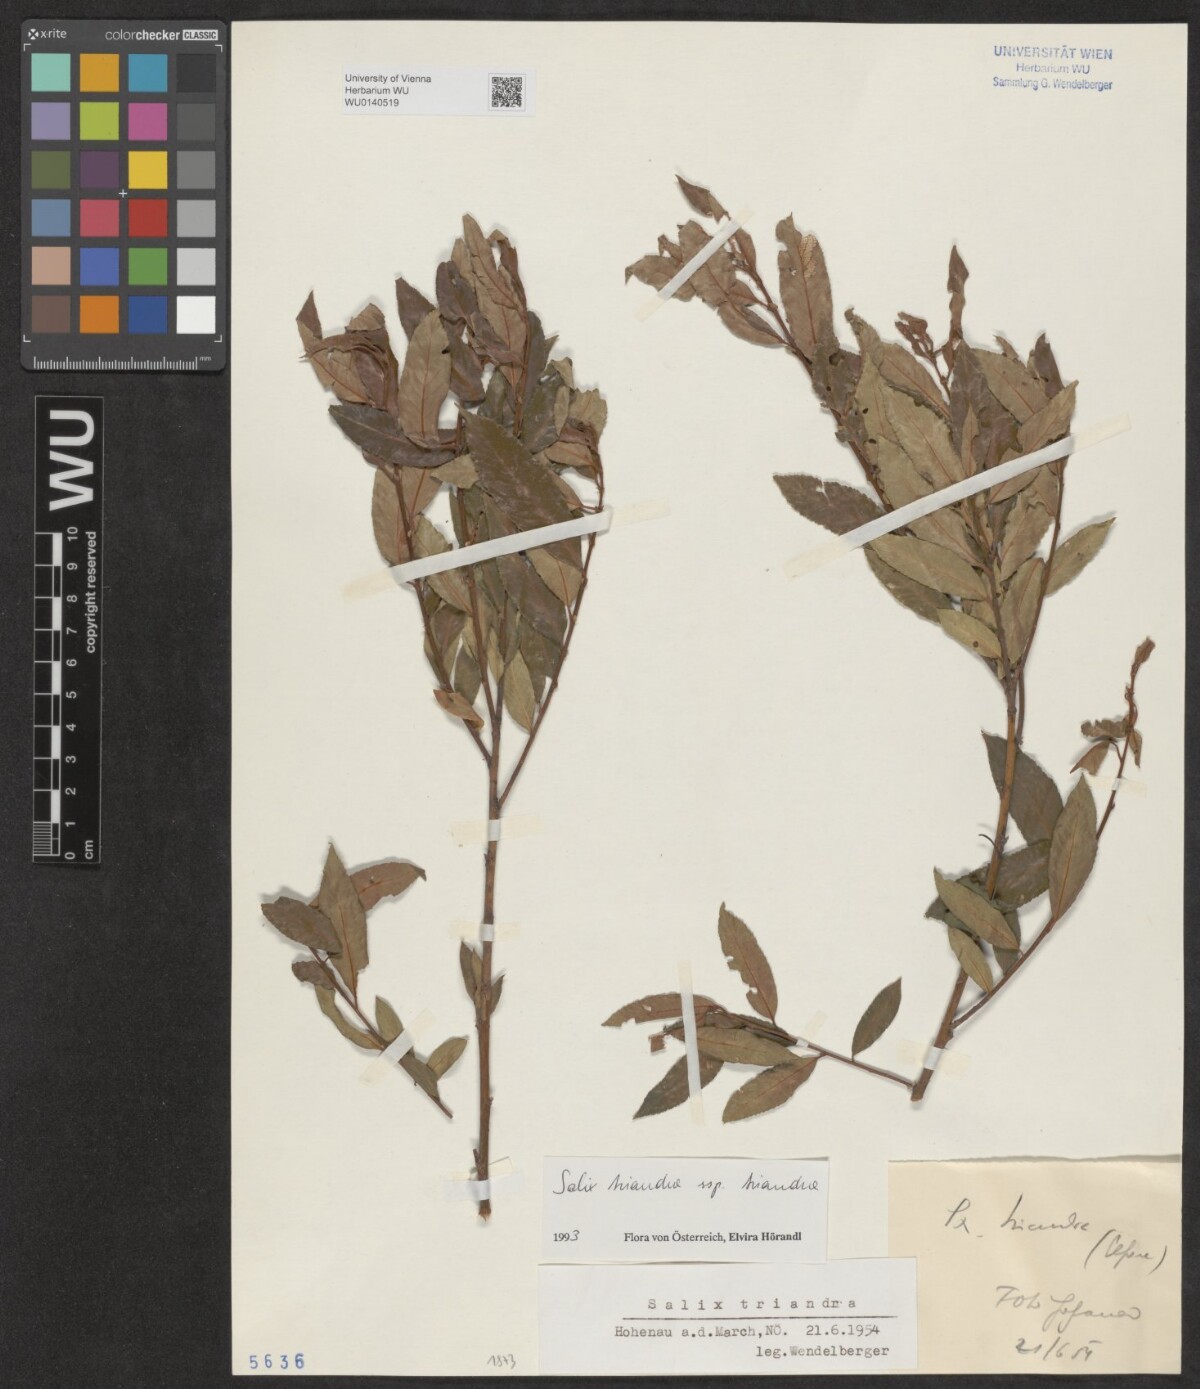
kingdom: Plantae
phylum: Tracheophyta
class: Magnoliopsida
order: Malpighiales
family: Salicaceae
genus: Salix
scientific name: Salix triandra
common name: Almond willow
